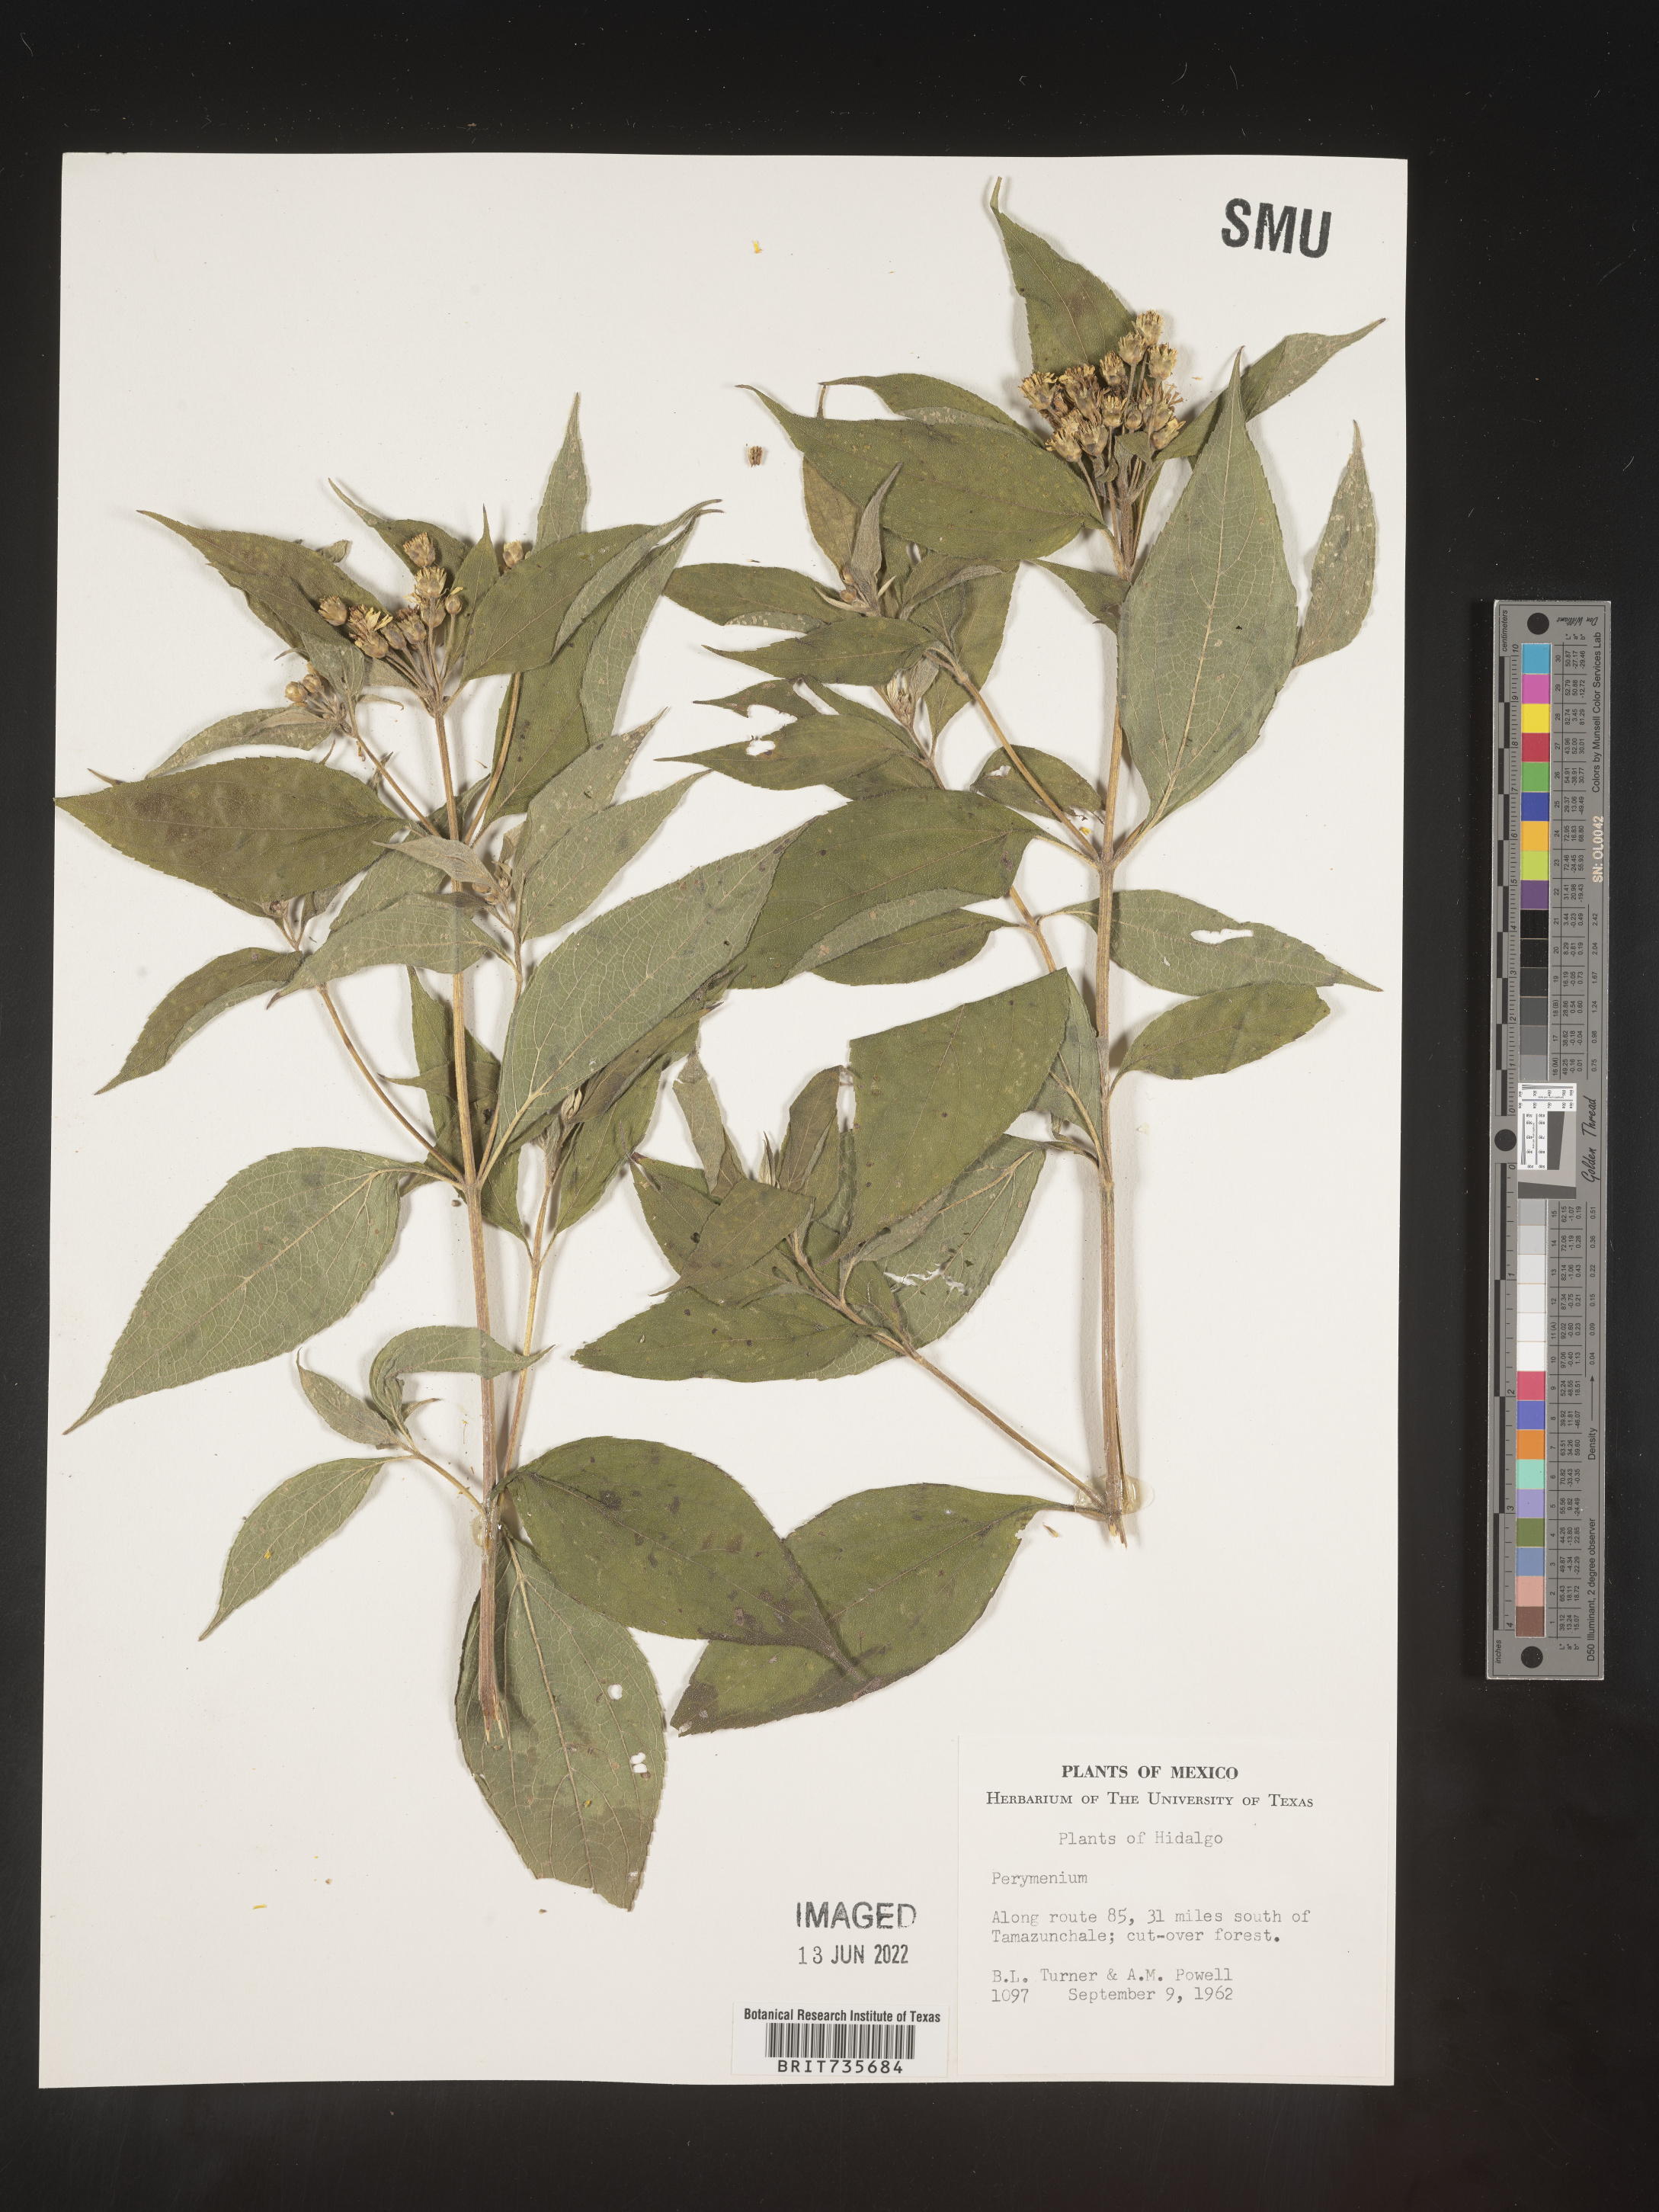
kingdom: Plantae
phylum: Tracheophyta
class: Magnoliopsida
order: Asterales
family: Asteraceae
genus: Perymenium
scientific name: Perymenium
